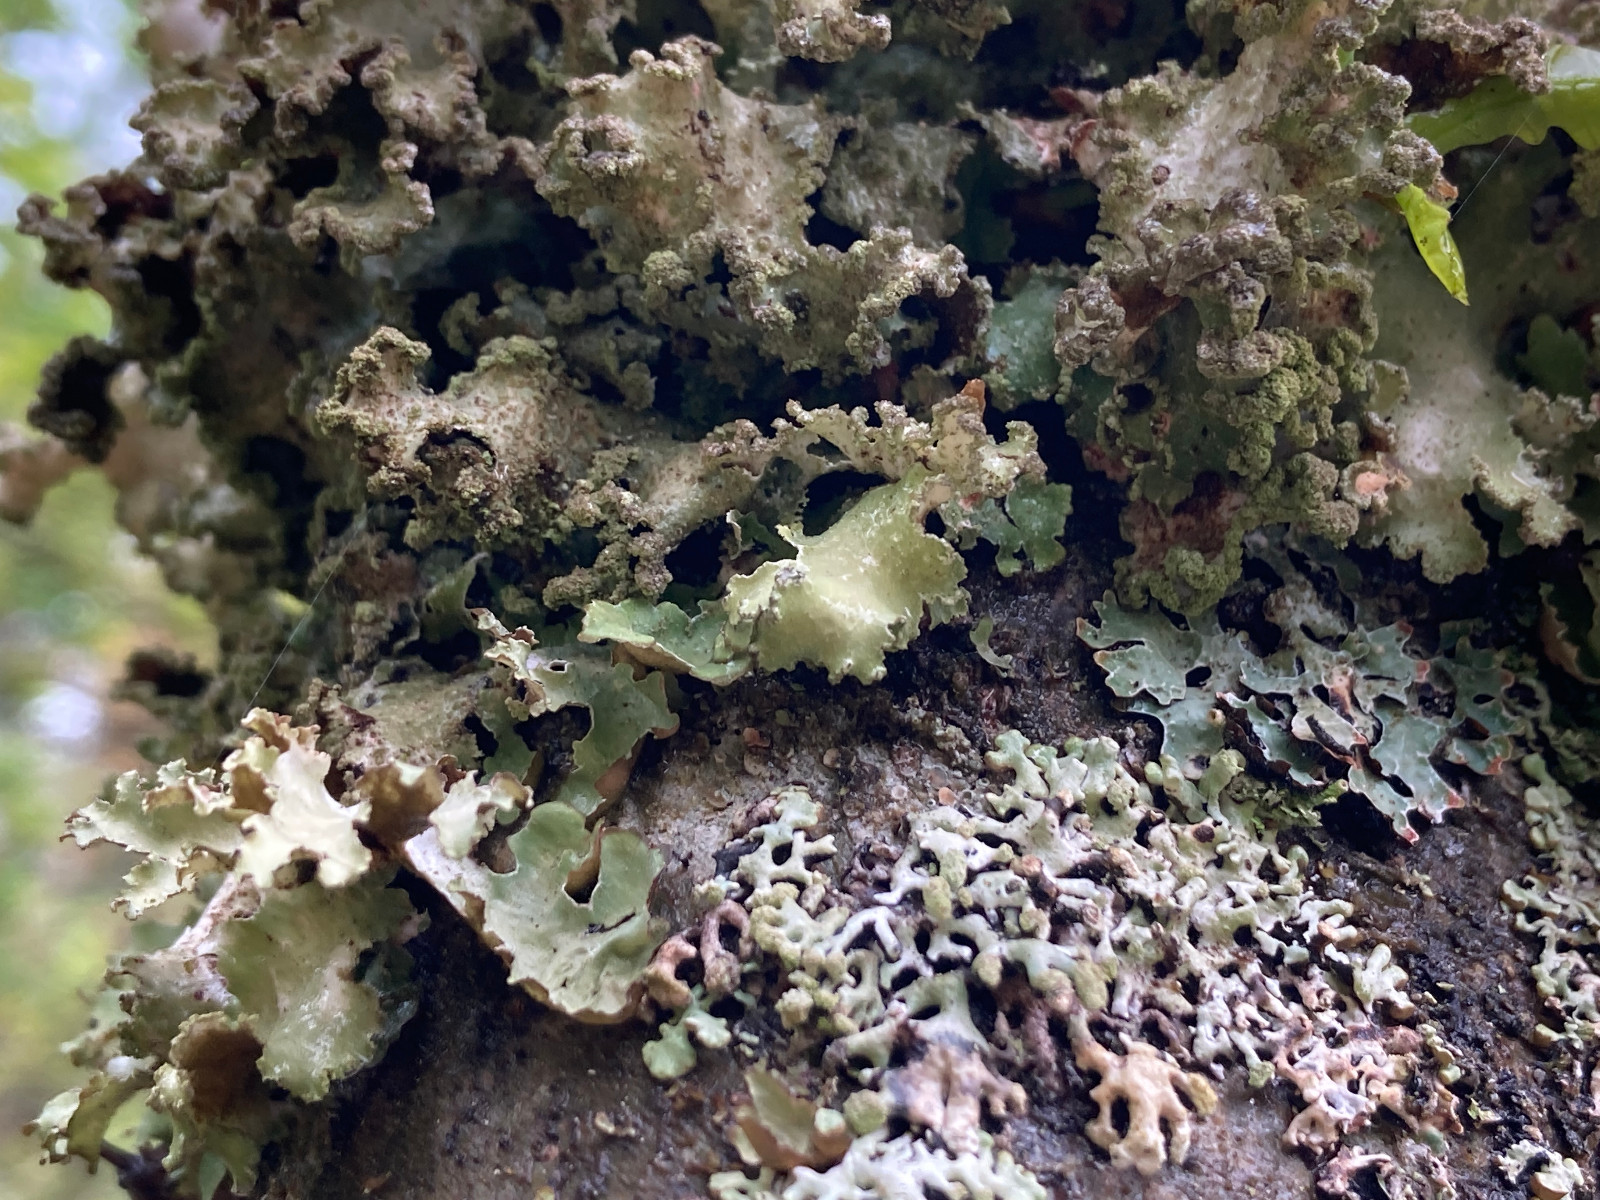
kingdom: Fungi
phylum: Ascomycota
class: Lecanoromycetes
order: Lecanorales
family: Parmeliaceae
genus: Platismatia
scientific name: Platismatia glauca
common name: blågrå papirlav
